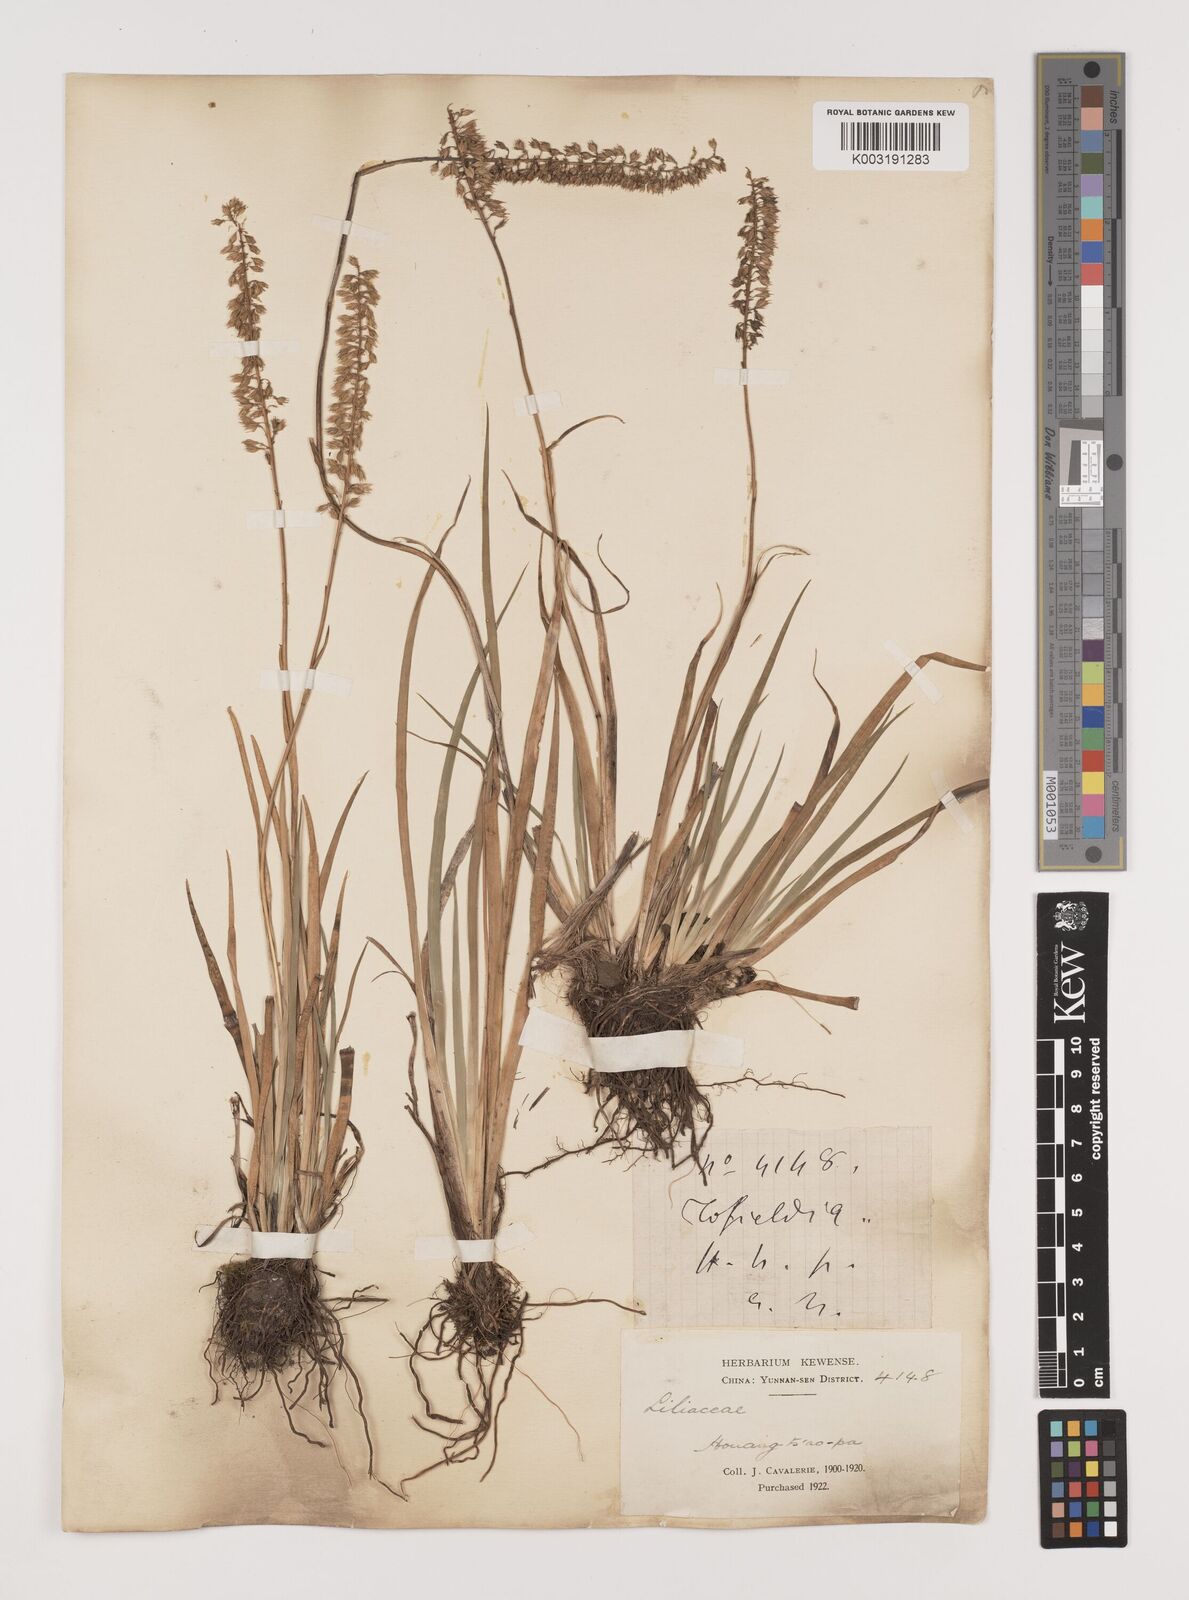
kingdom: Plantae
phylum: Tracheophyta
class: Liliopsida
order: Alismatales
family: Tofieldiaceae
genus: Tofieldia
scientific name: Tofieldia divergens
